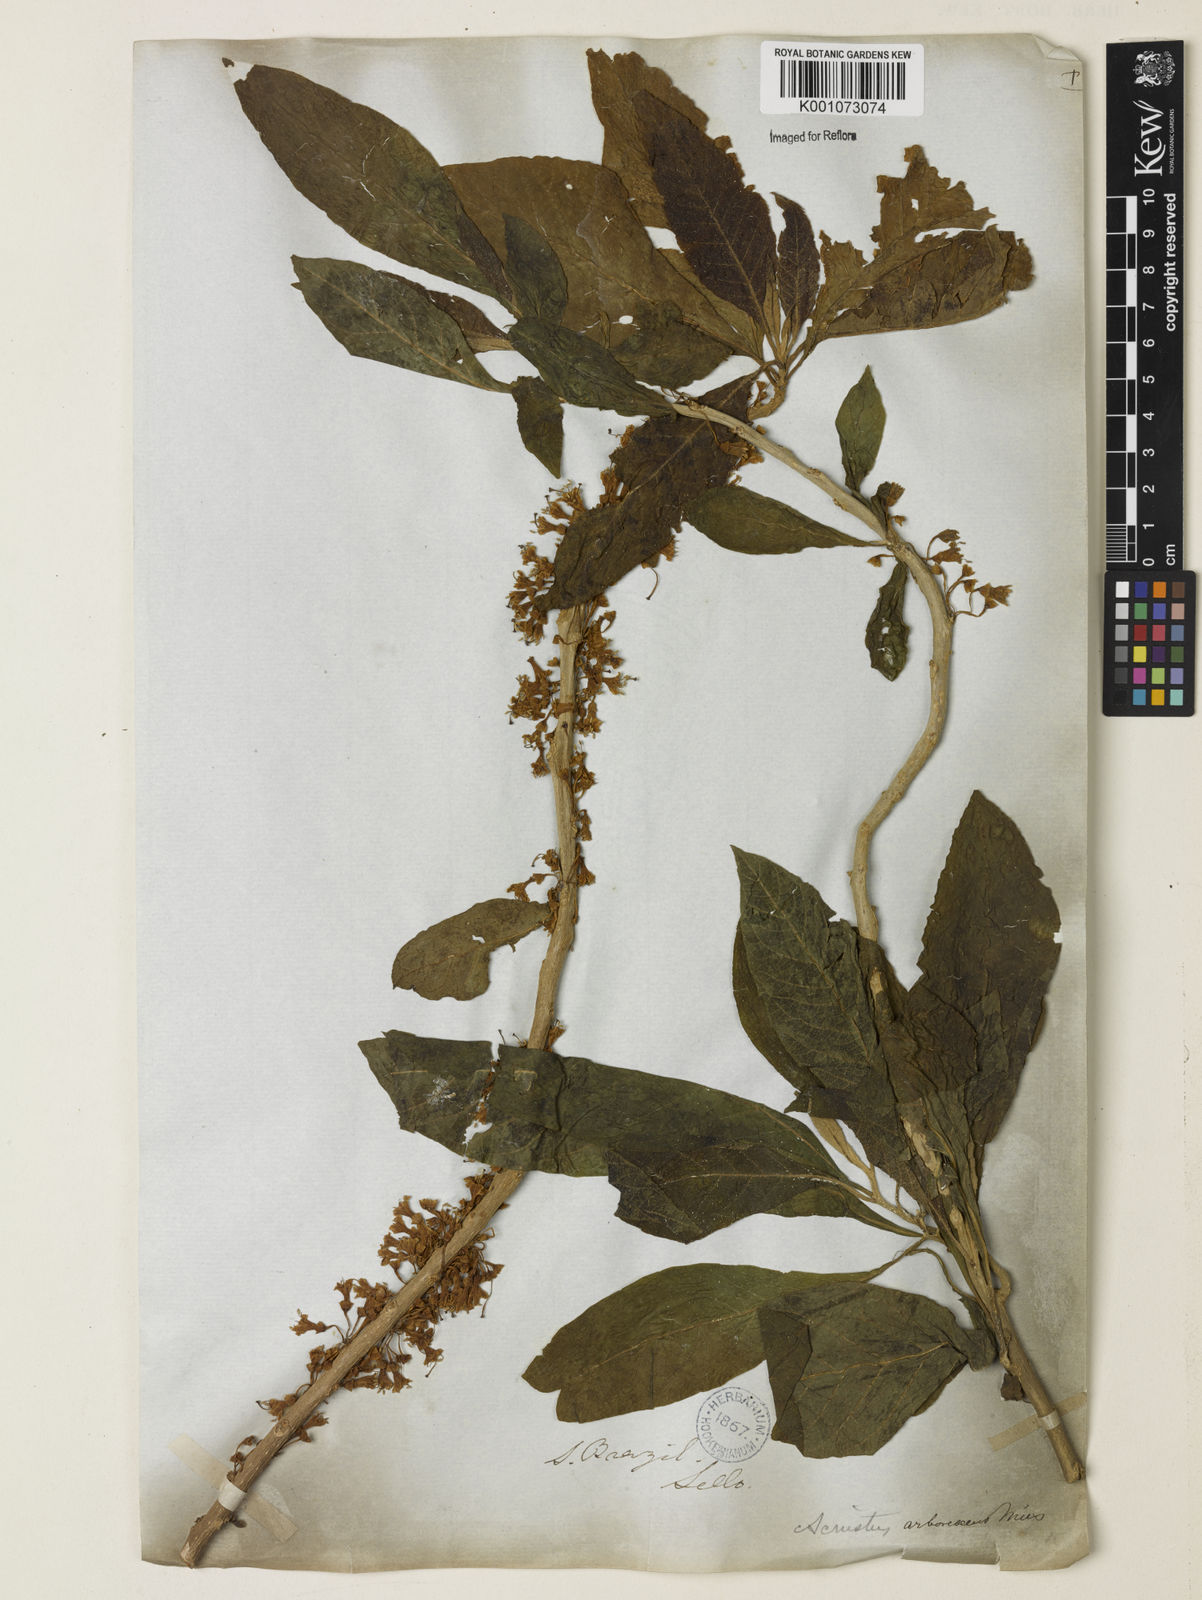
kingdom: Plantae
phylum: Tracheophyta
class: Magnoliopsida
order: Solanales
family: Solanaceae
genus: Iochroma
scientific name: Iochroma arborescens
